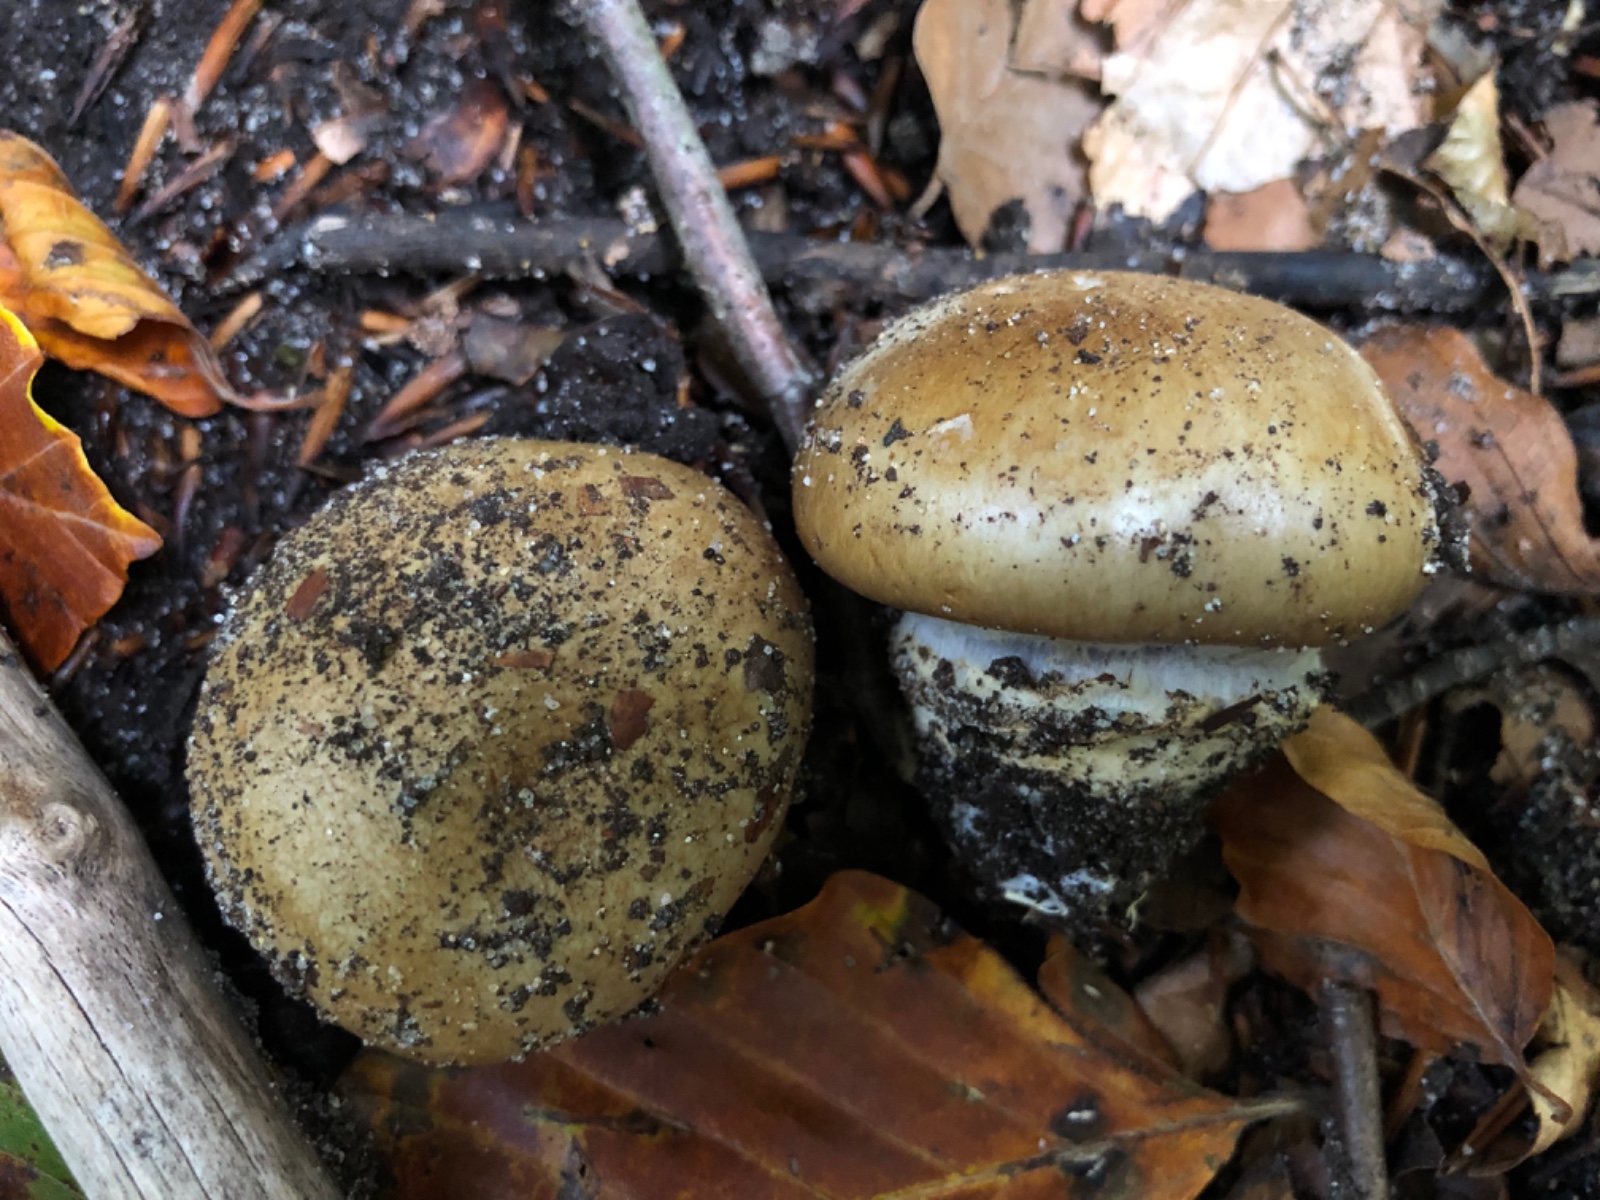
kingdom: Fungi
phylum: Basidiomycota
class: Agaricomycetes
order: Agaricales
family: Cortinariaceae
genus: Cortinarius
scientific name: Cortinarius anserinus
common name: bøge-slørhat
